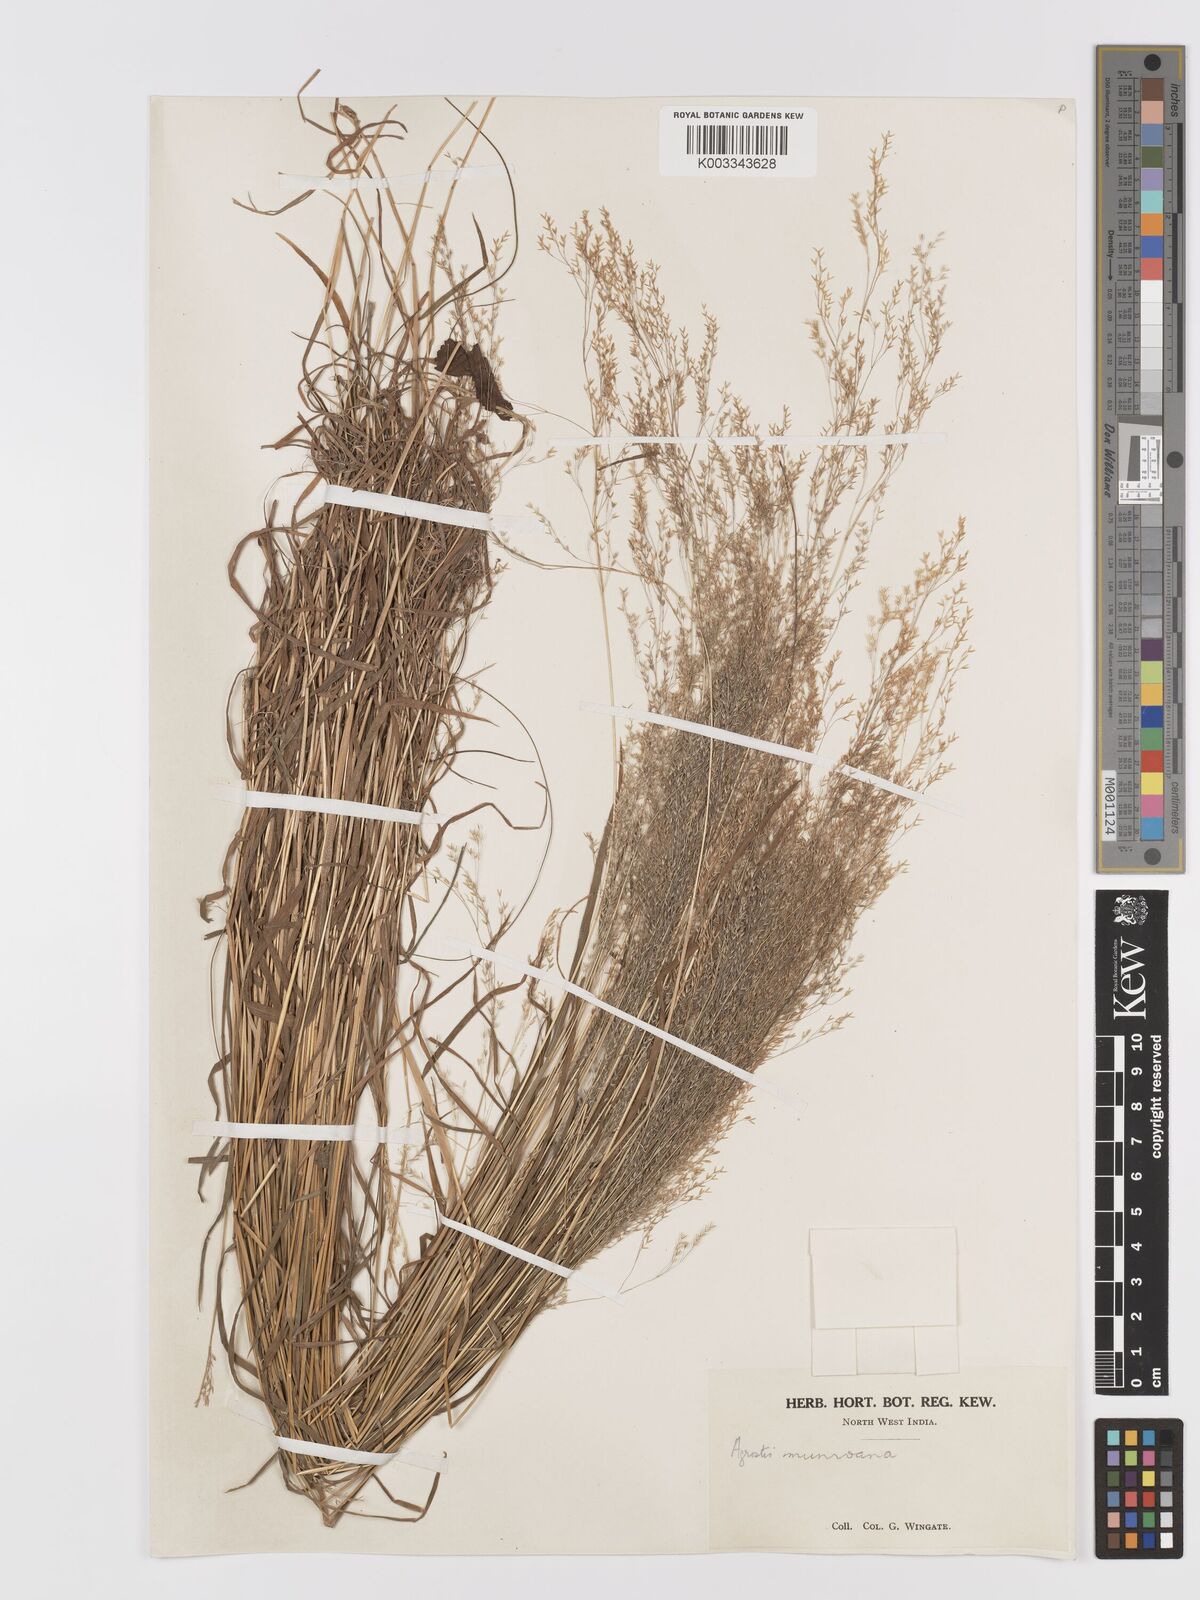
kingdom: Plantae
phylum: Tracheophyta
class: Liliopsida
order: Poales
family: Poaceae
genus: Agrostis
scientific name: Agrostis munroana
